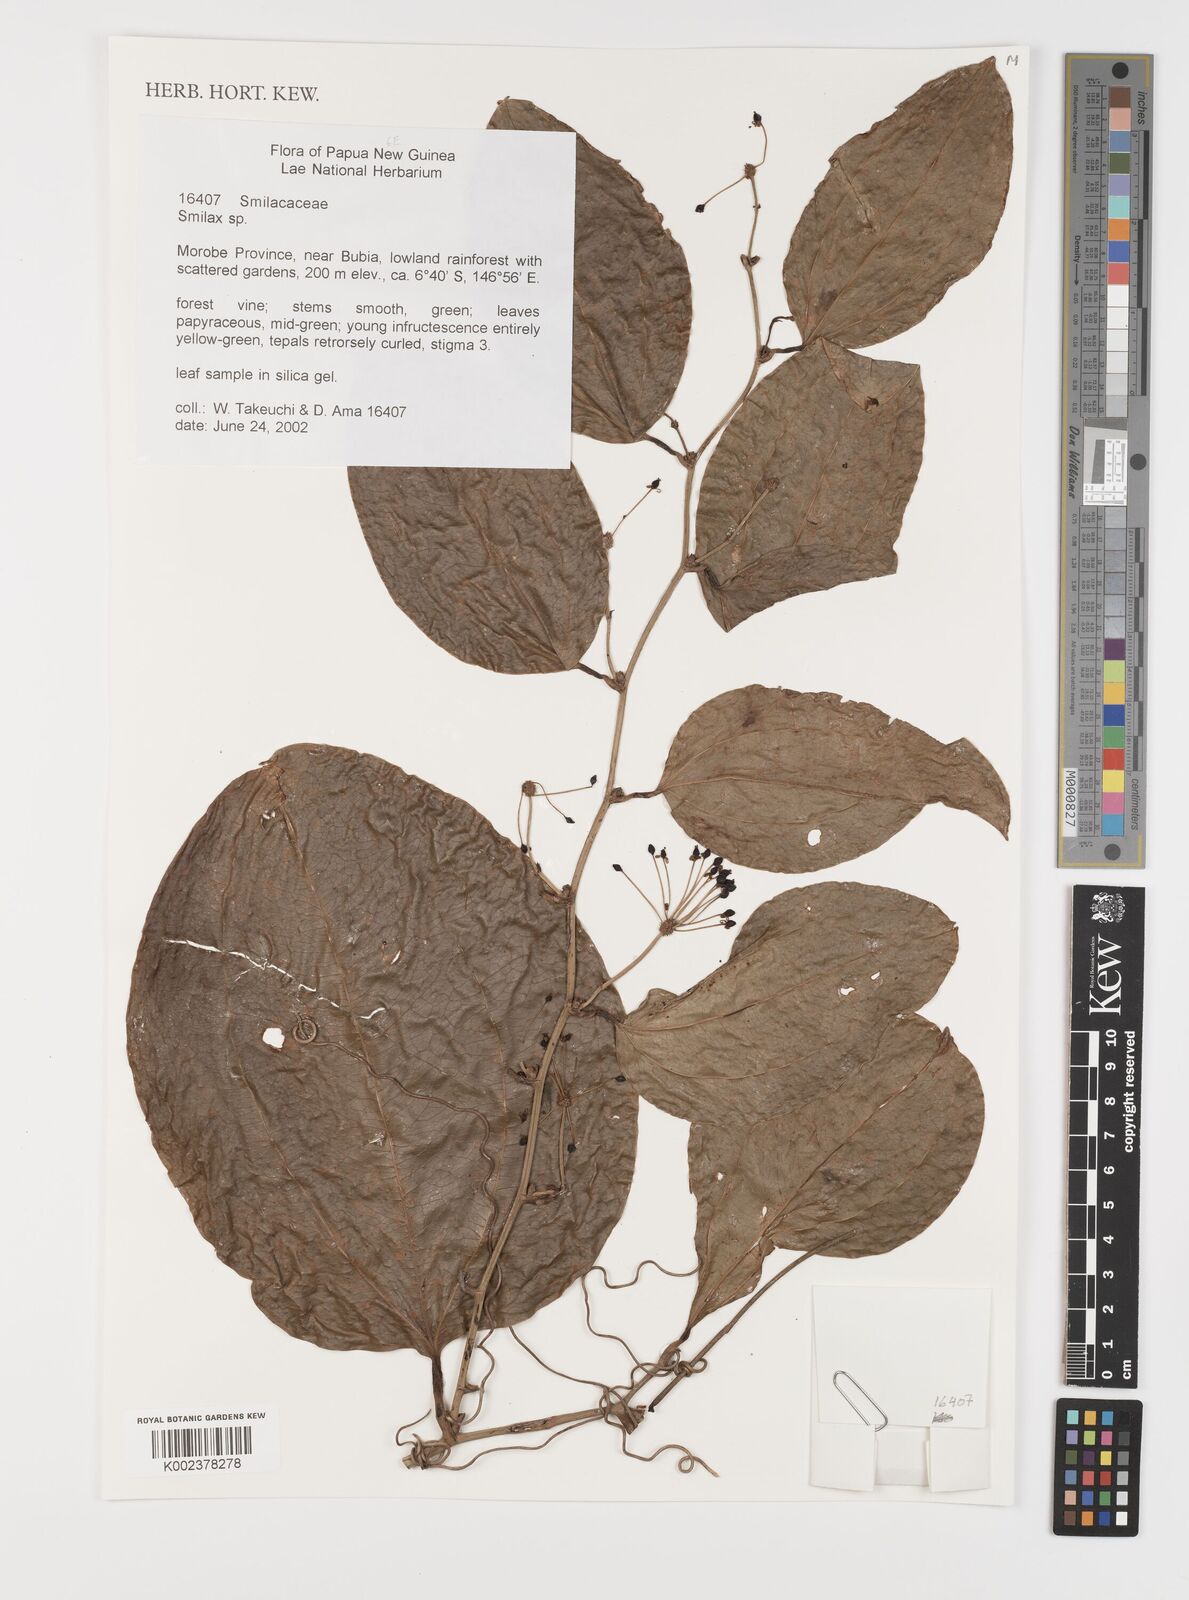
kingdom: Plantae
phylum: Tracheophyta
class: Liliopsida
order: Liliales
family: Smilacaceae
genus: Smilax
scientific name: Smilax
